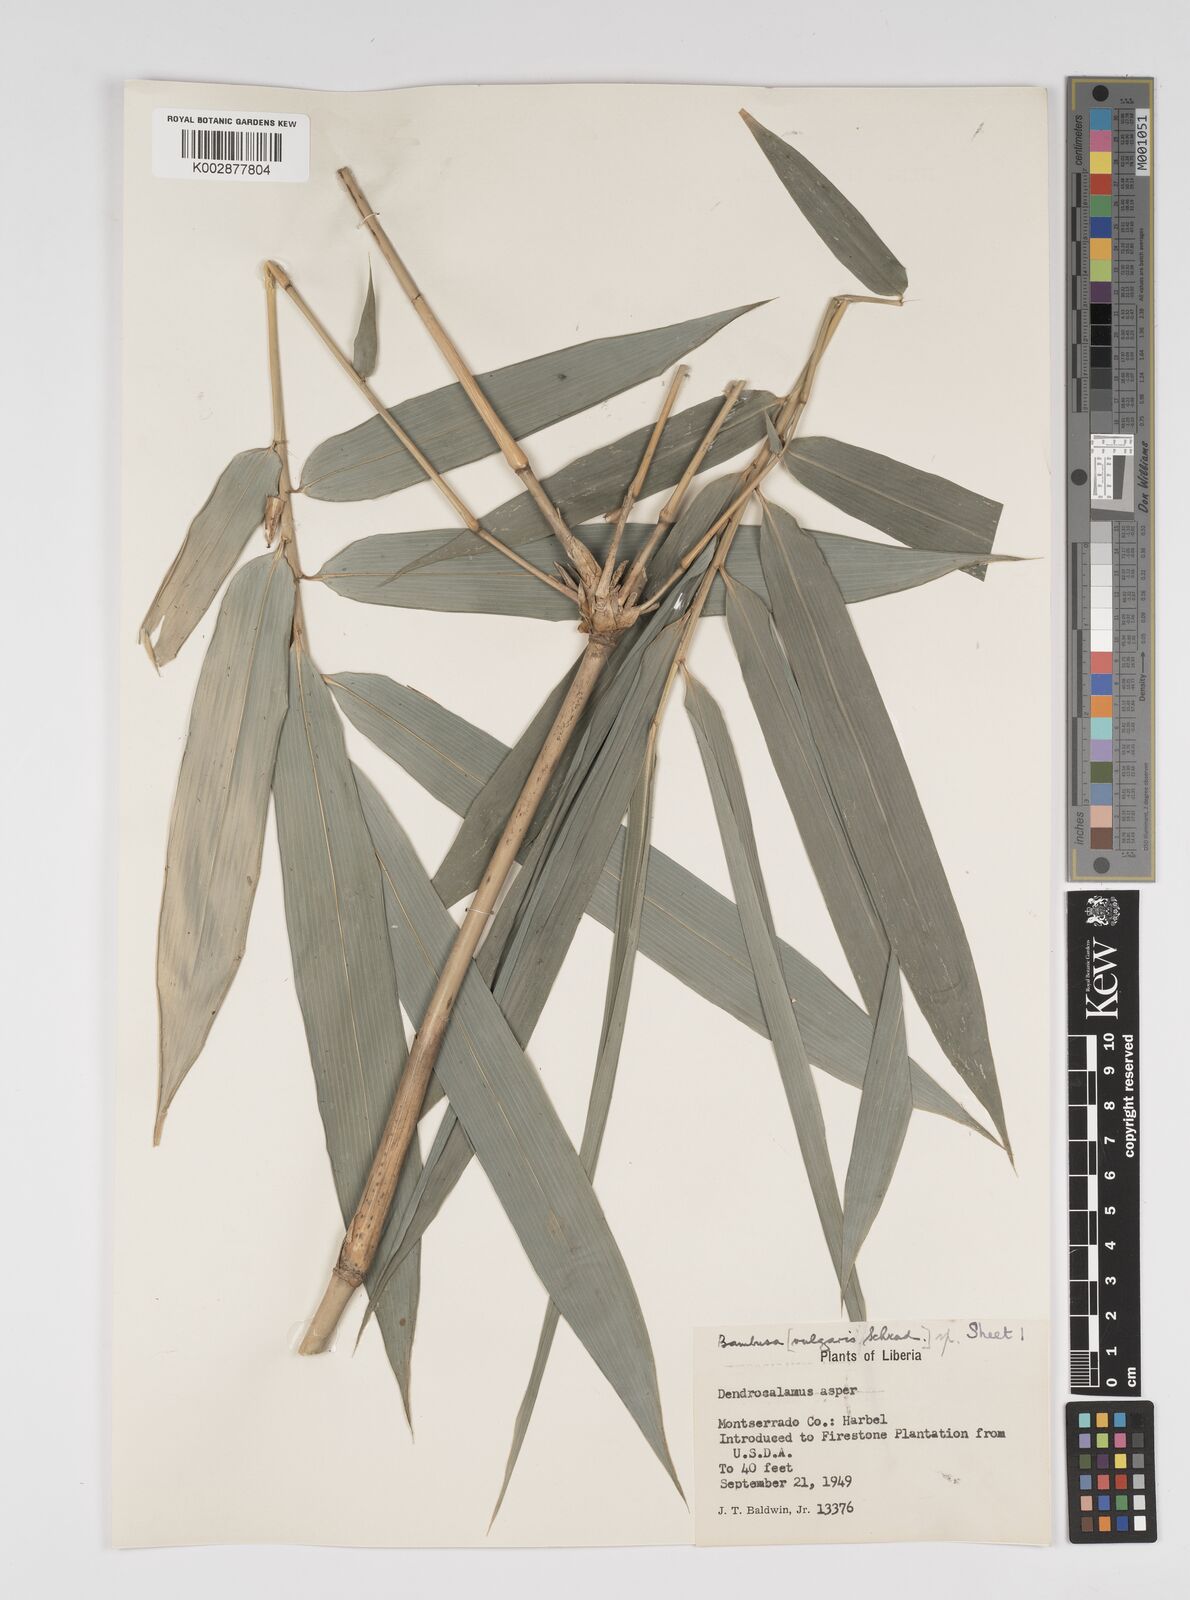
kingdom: Plantae
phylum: Tracheophyta
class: Liliopsida
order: Poales
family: Poaceae
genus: Bambusa
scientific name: Bambusa tulda
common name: Bengal bamboo
